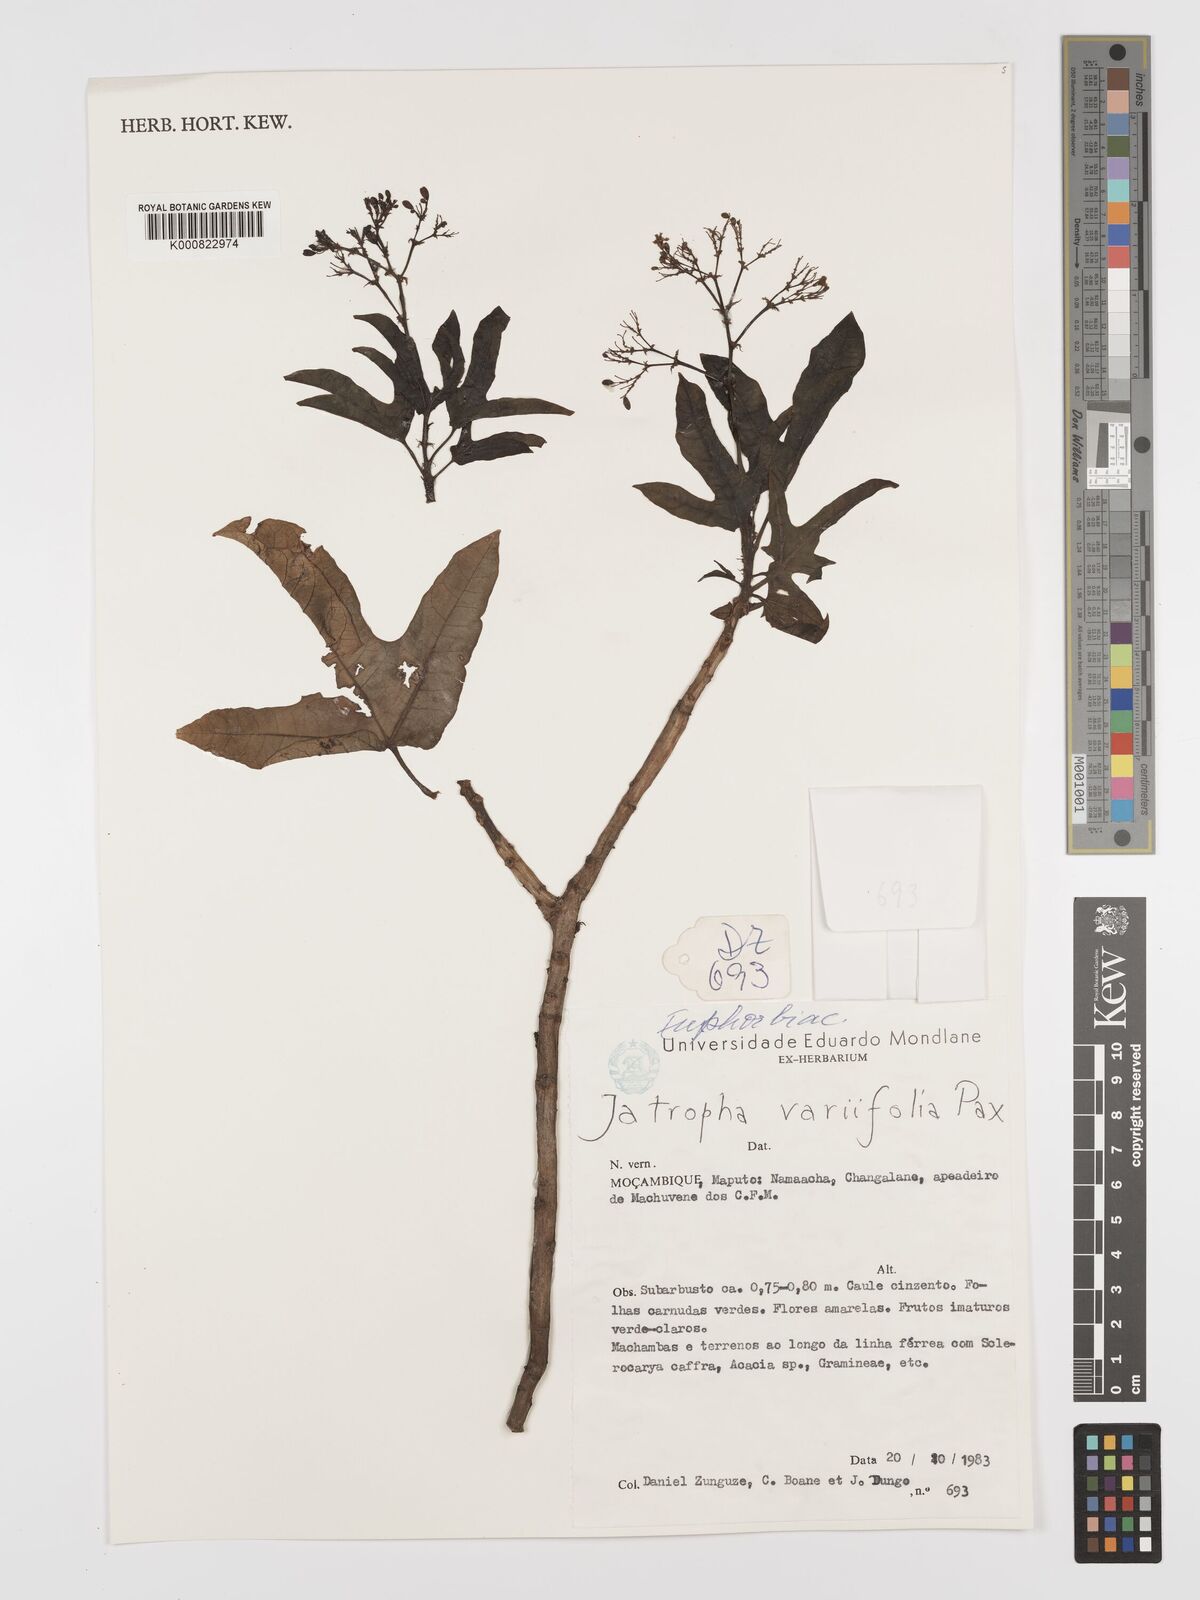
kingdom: Plantae
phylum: Tracheophyta
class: Magnoliopsida
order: Malpighiales
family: Euphorbiaceae
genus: Jatropha
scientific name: Jatropha variifolia
